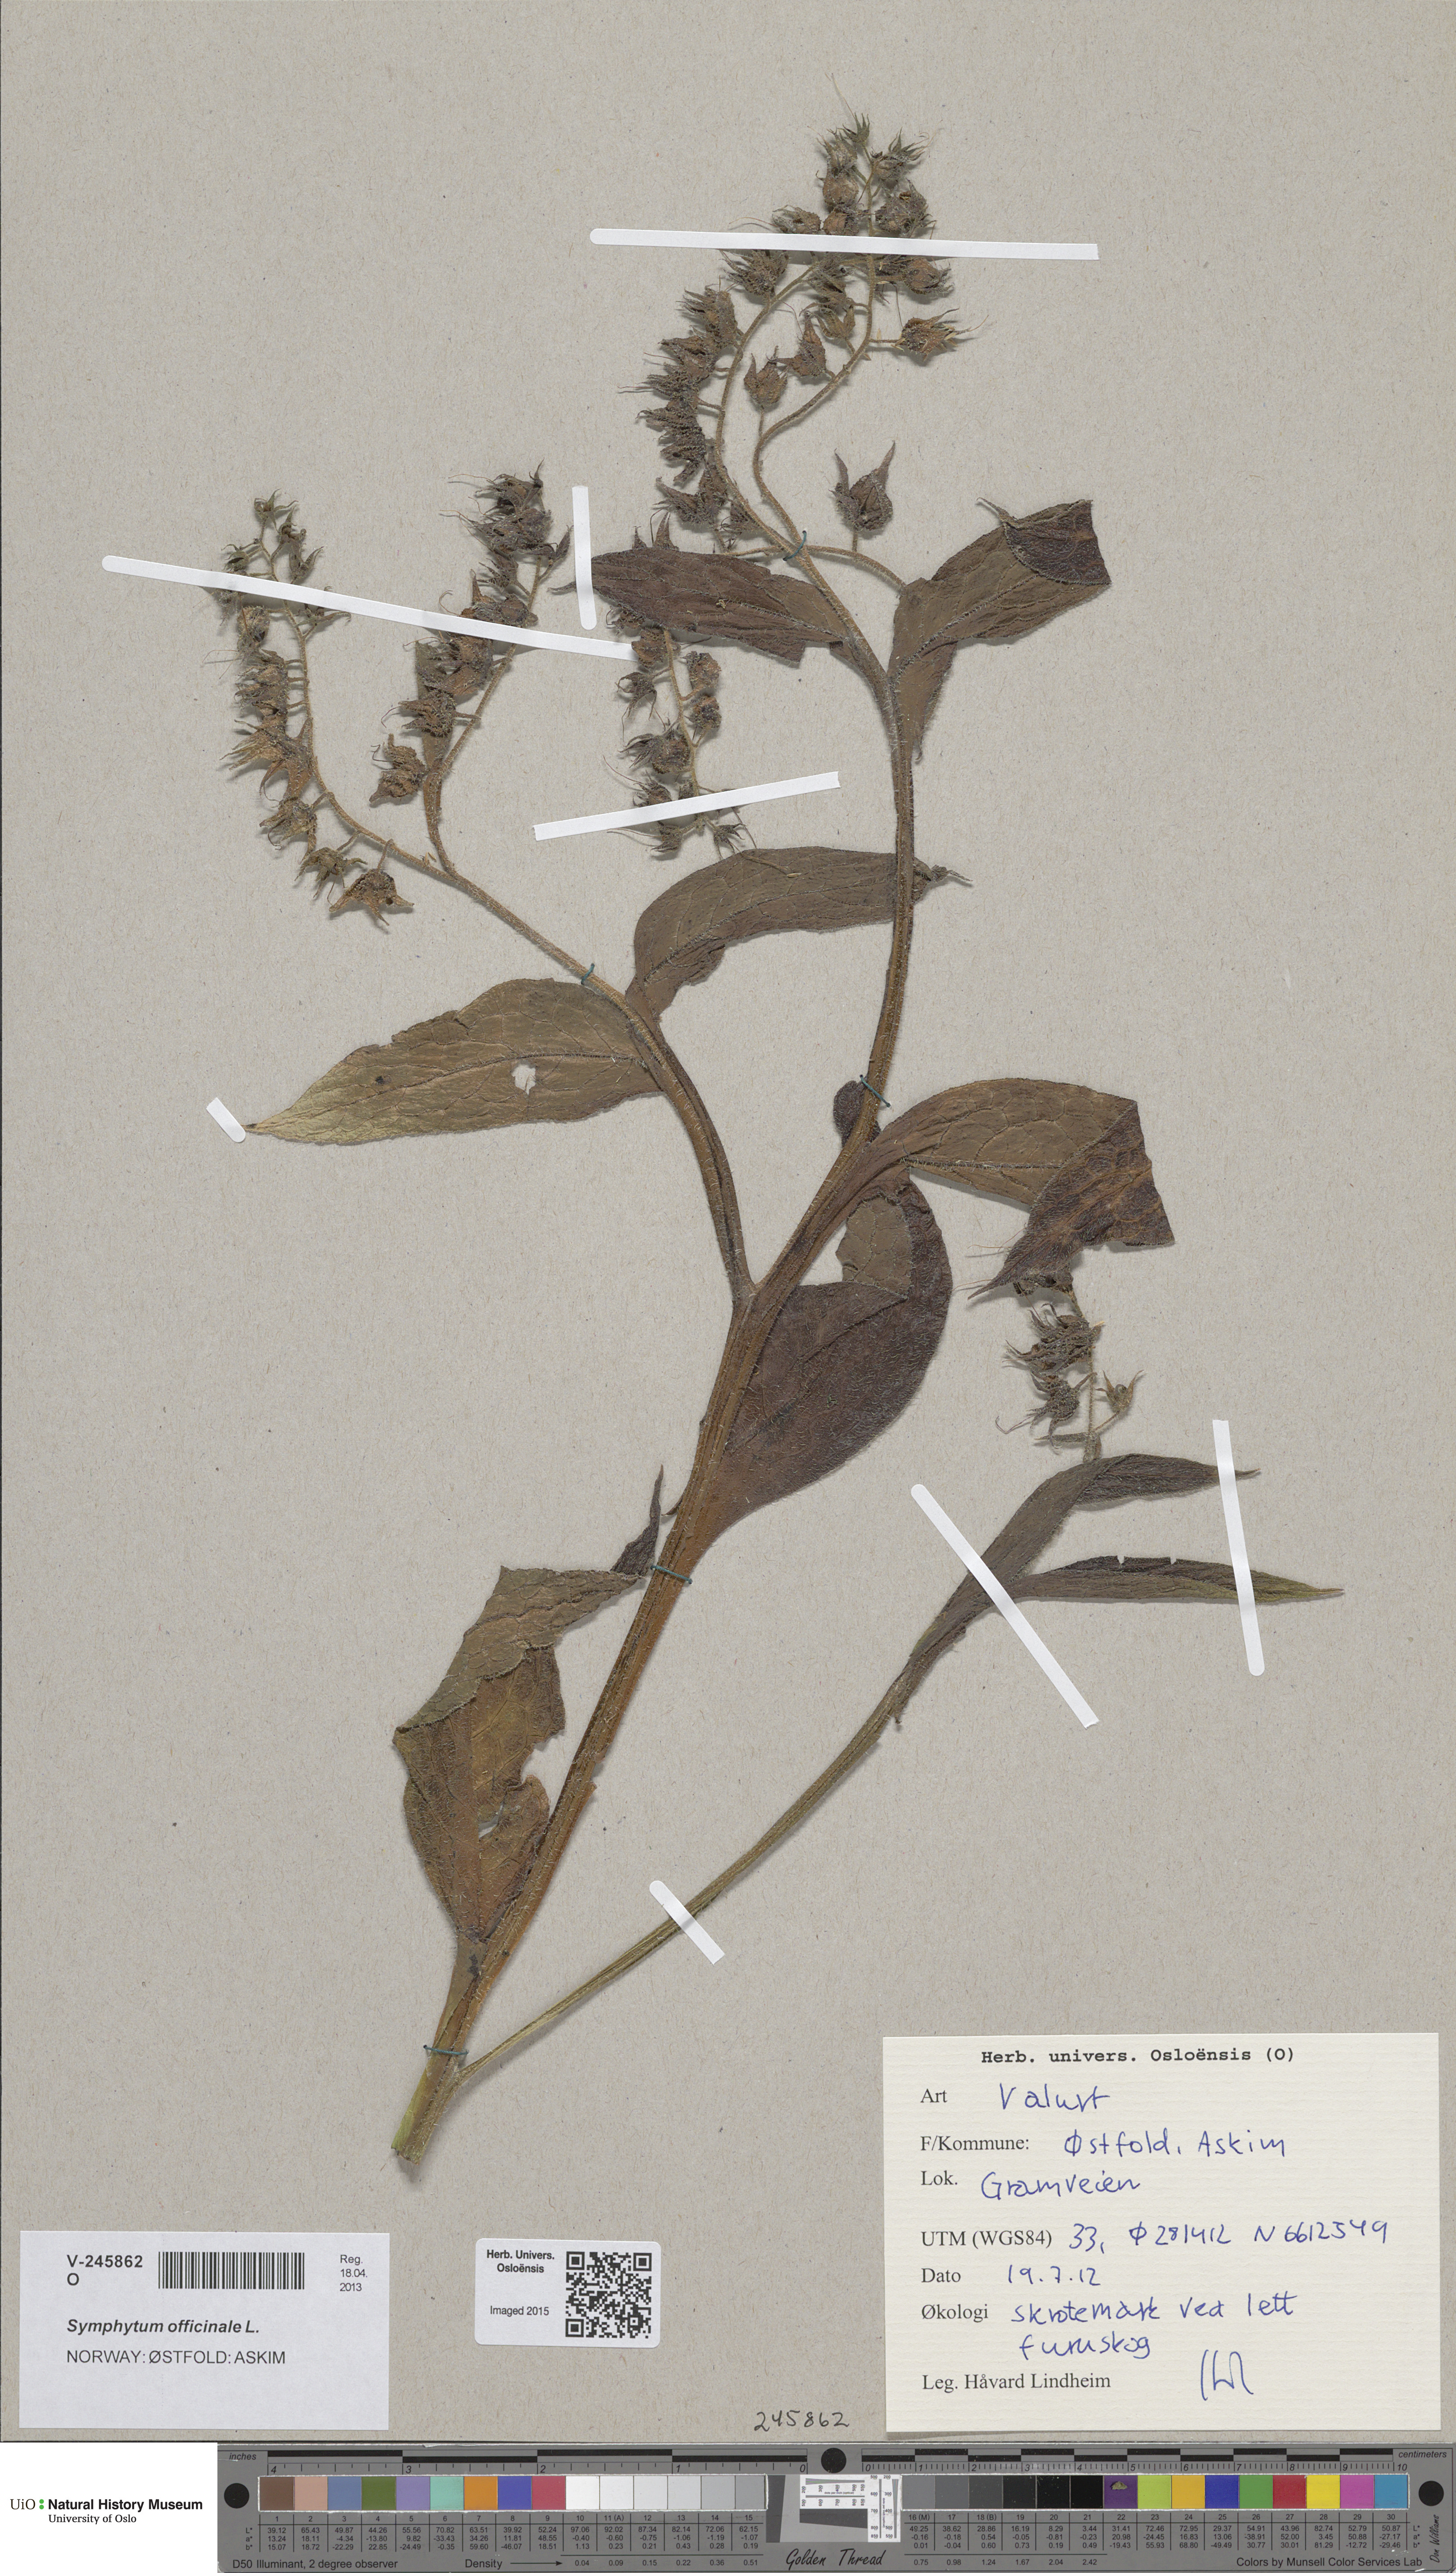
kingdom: Plantae
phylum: Tracheophyta
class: Magnoliopsida
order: Boraginales
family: Boraginaceae
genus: Symphytum
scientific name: Symphytum officinale
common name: Common comfrey
